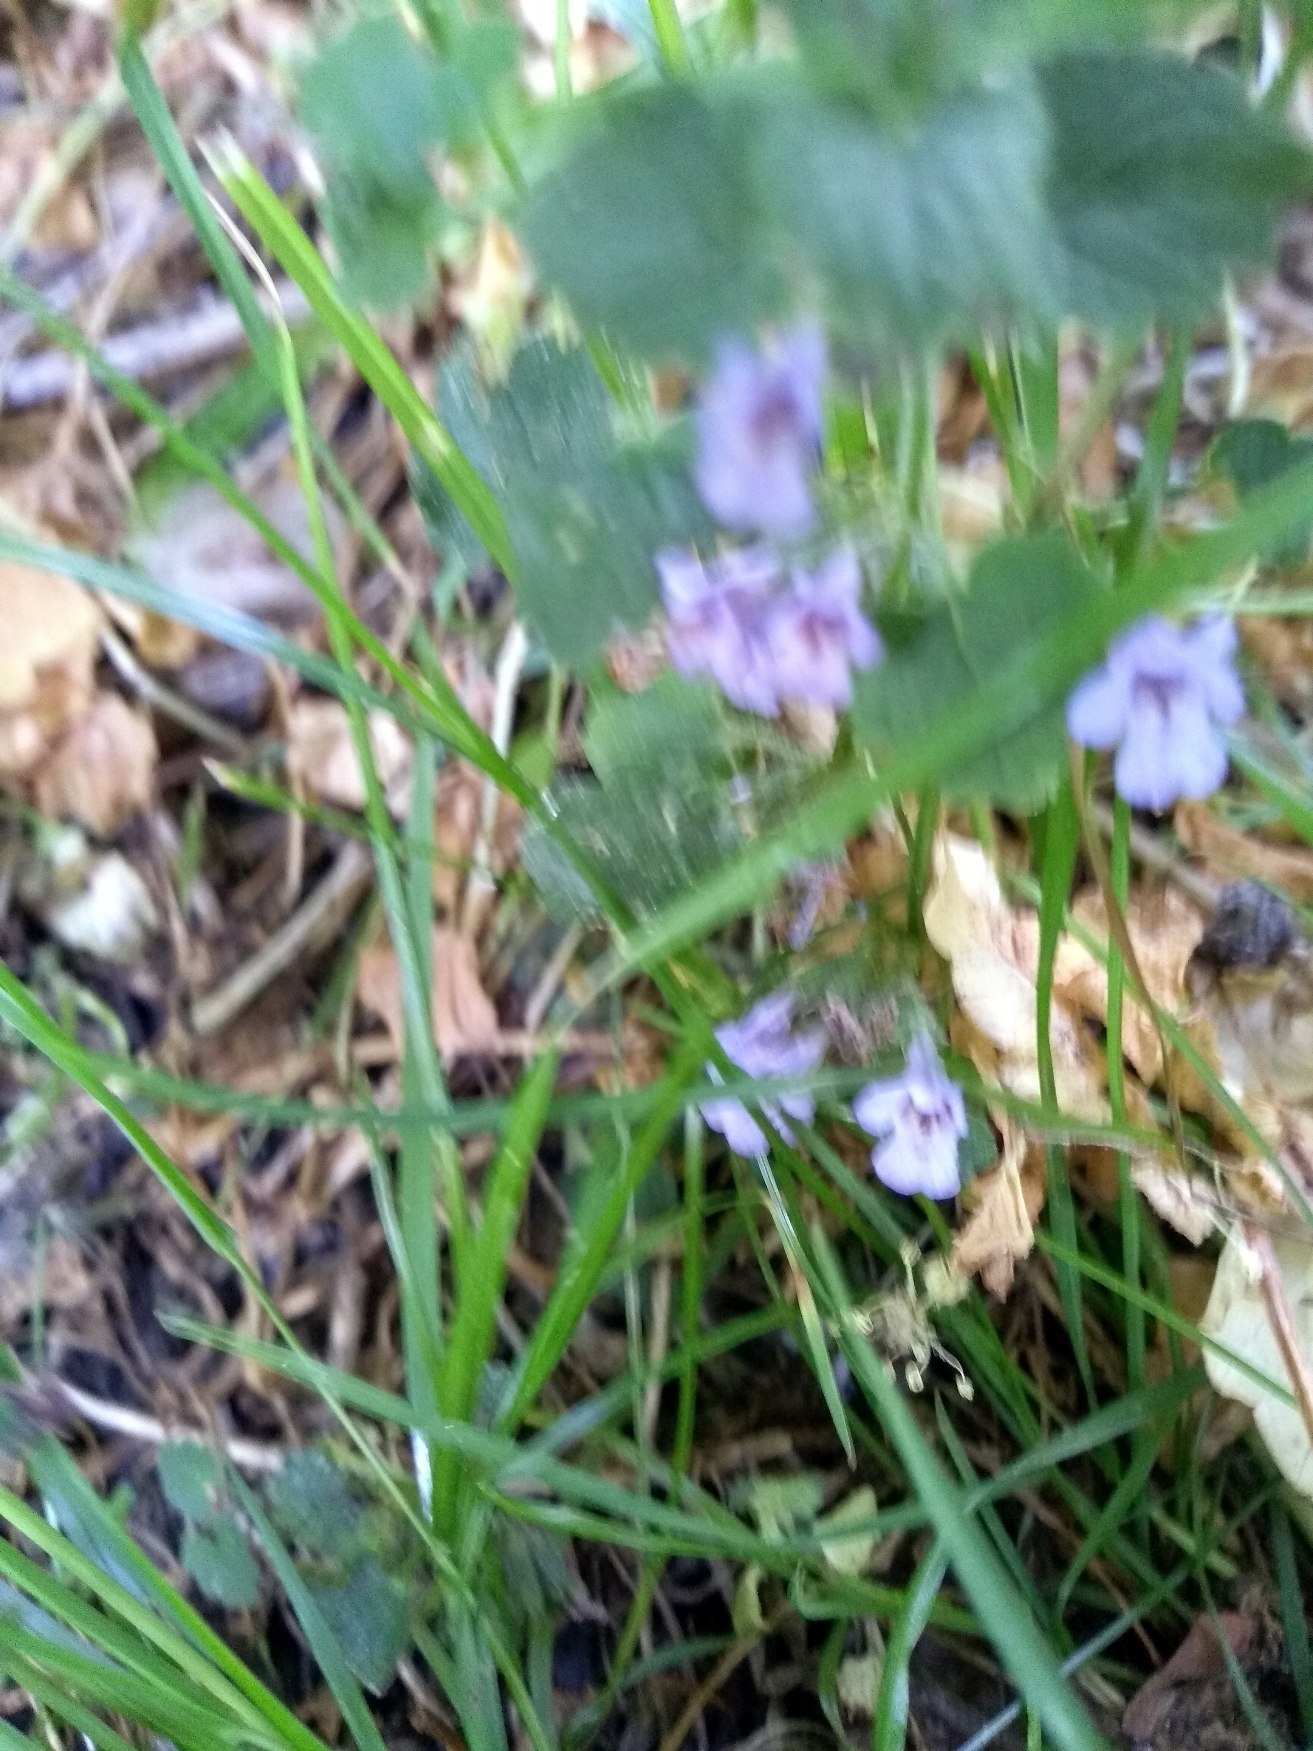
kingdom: Plantae
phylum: Tracheophyta
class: Magnoliopsida
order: Lamiales
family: Lamiaceae
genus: Glechoma
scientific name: Glechoma hederacea
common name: Korsknap
